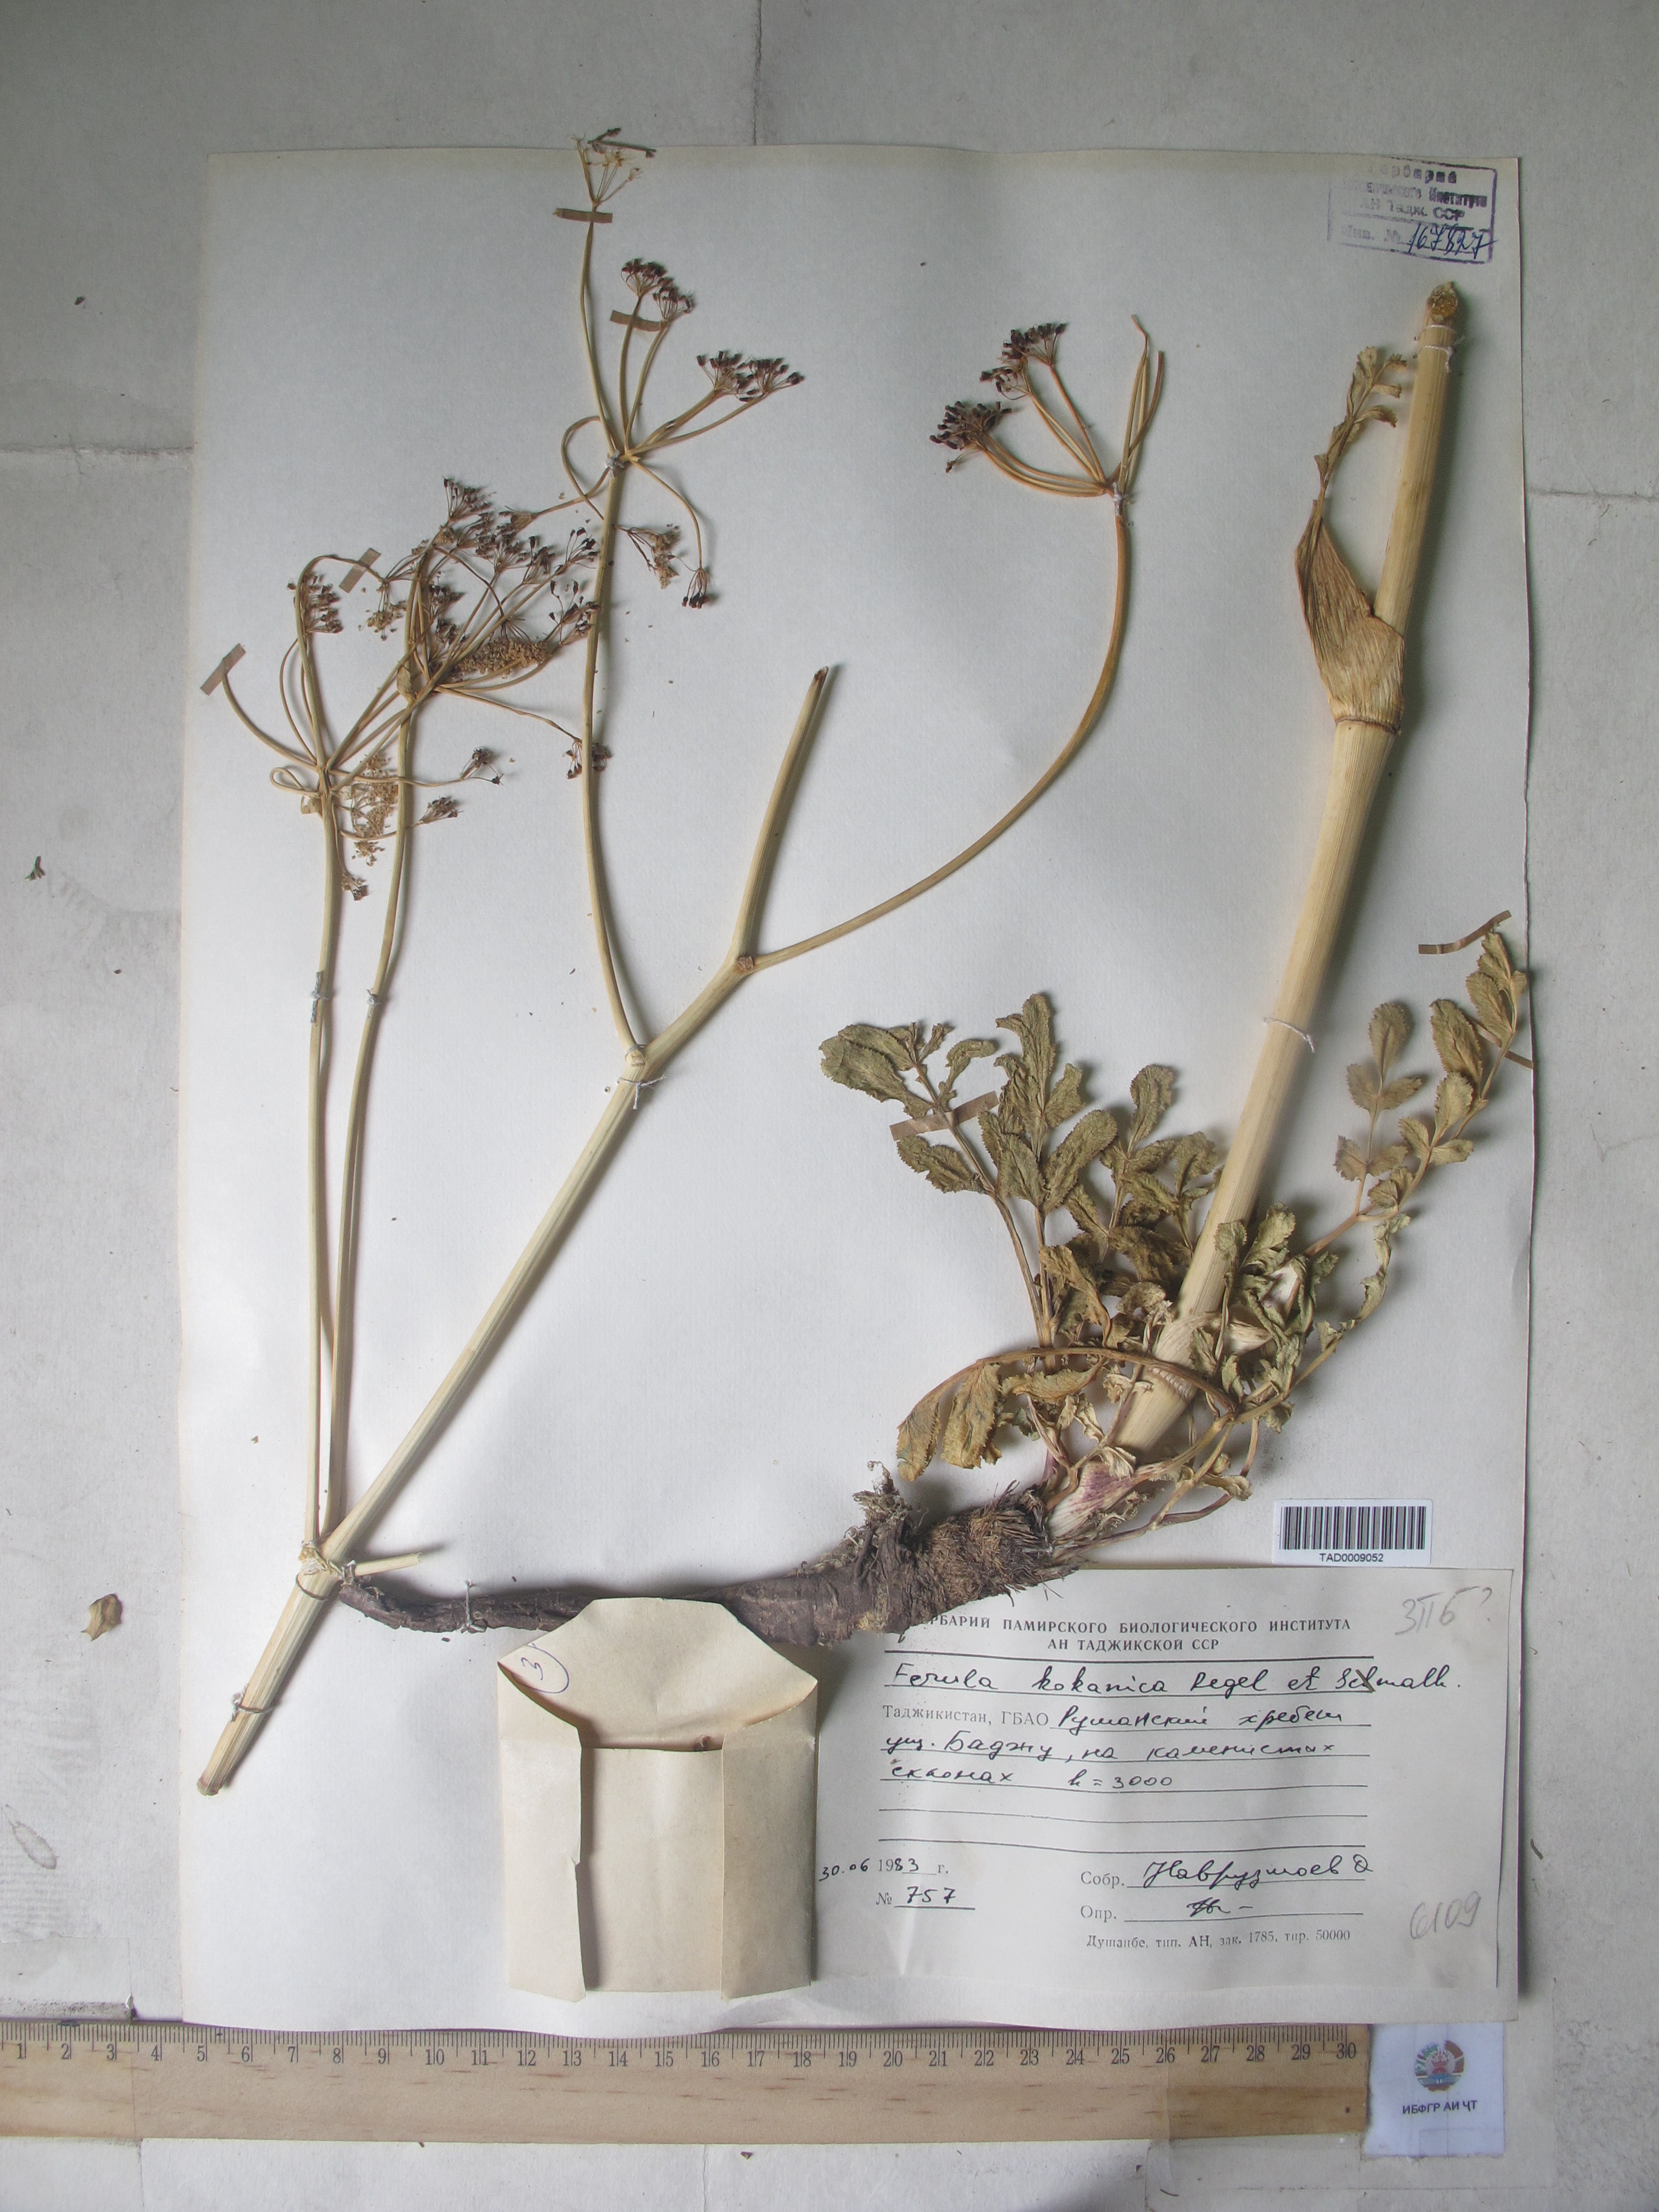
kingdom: Plantae
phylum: Tracheophyta
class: Magnoliopsida
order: Apiales
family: Apiaceae
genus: Ferula
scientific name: Ferula kokanica
